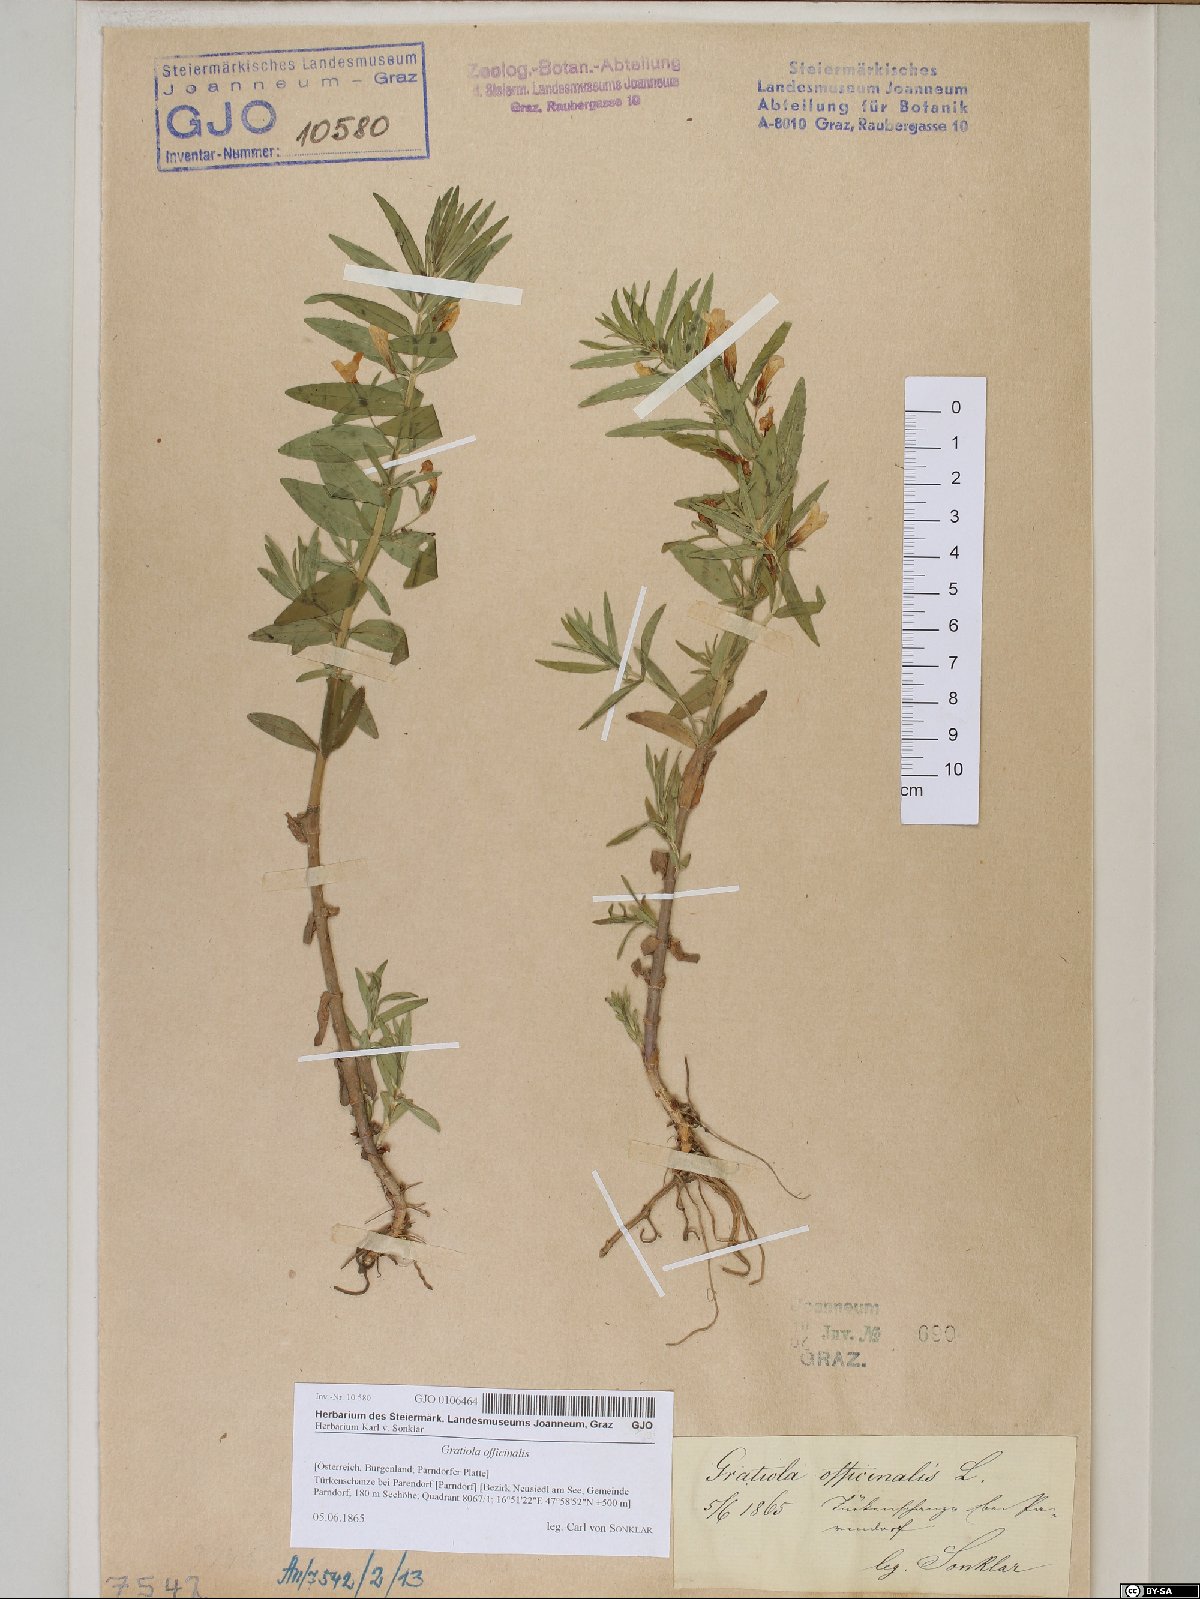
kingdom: Plantae
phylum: Tracheophyta
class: Magnoliopsida
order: Lamiales
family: Plantaginaceae
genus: Gratiola
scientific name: Gratiola officinalis
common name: Gratiola
